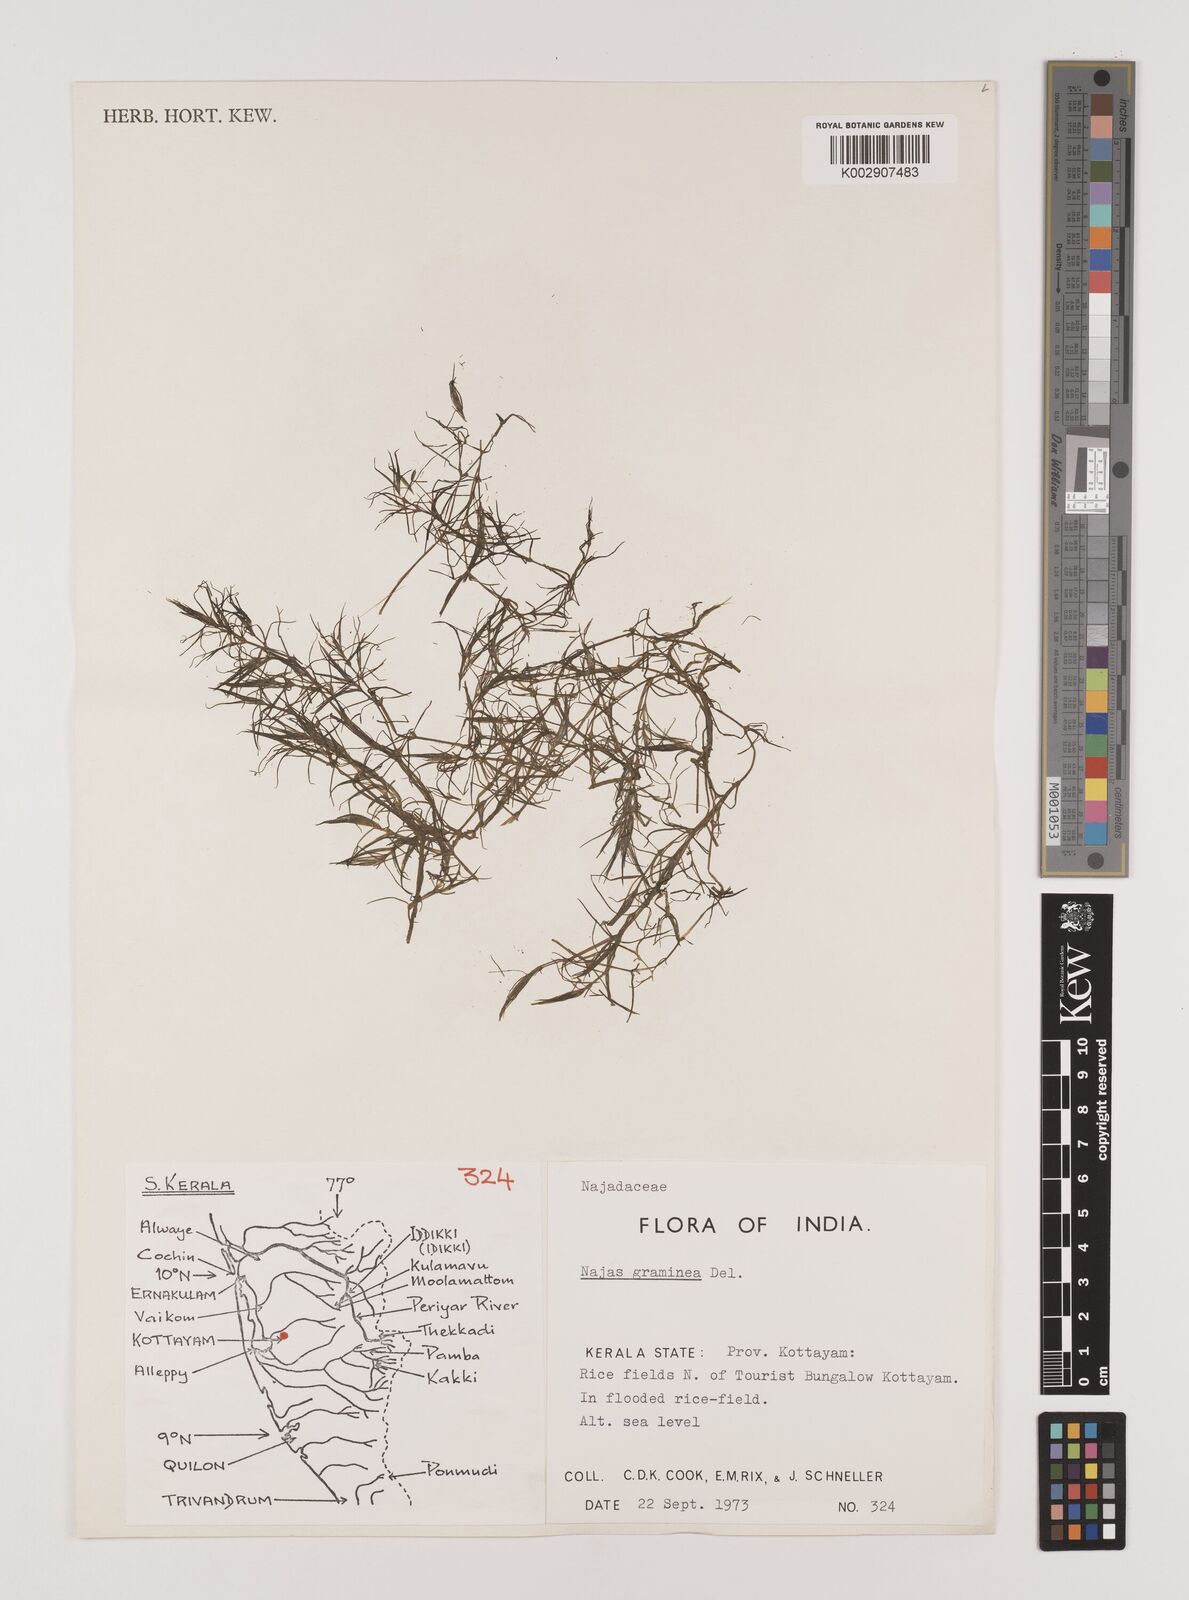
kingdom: Plantae
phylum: Tracheophyta
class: Liliopsida
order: Alismatales
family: Hydrocharitaceae
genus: Najas
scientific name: Najas graminea
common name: Ricefield waternymph
